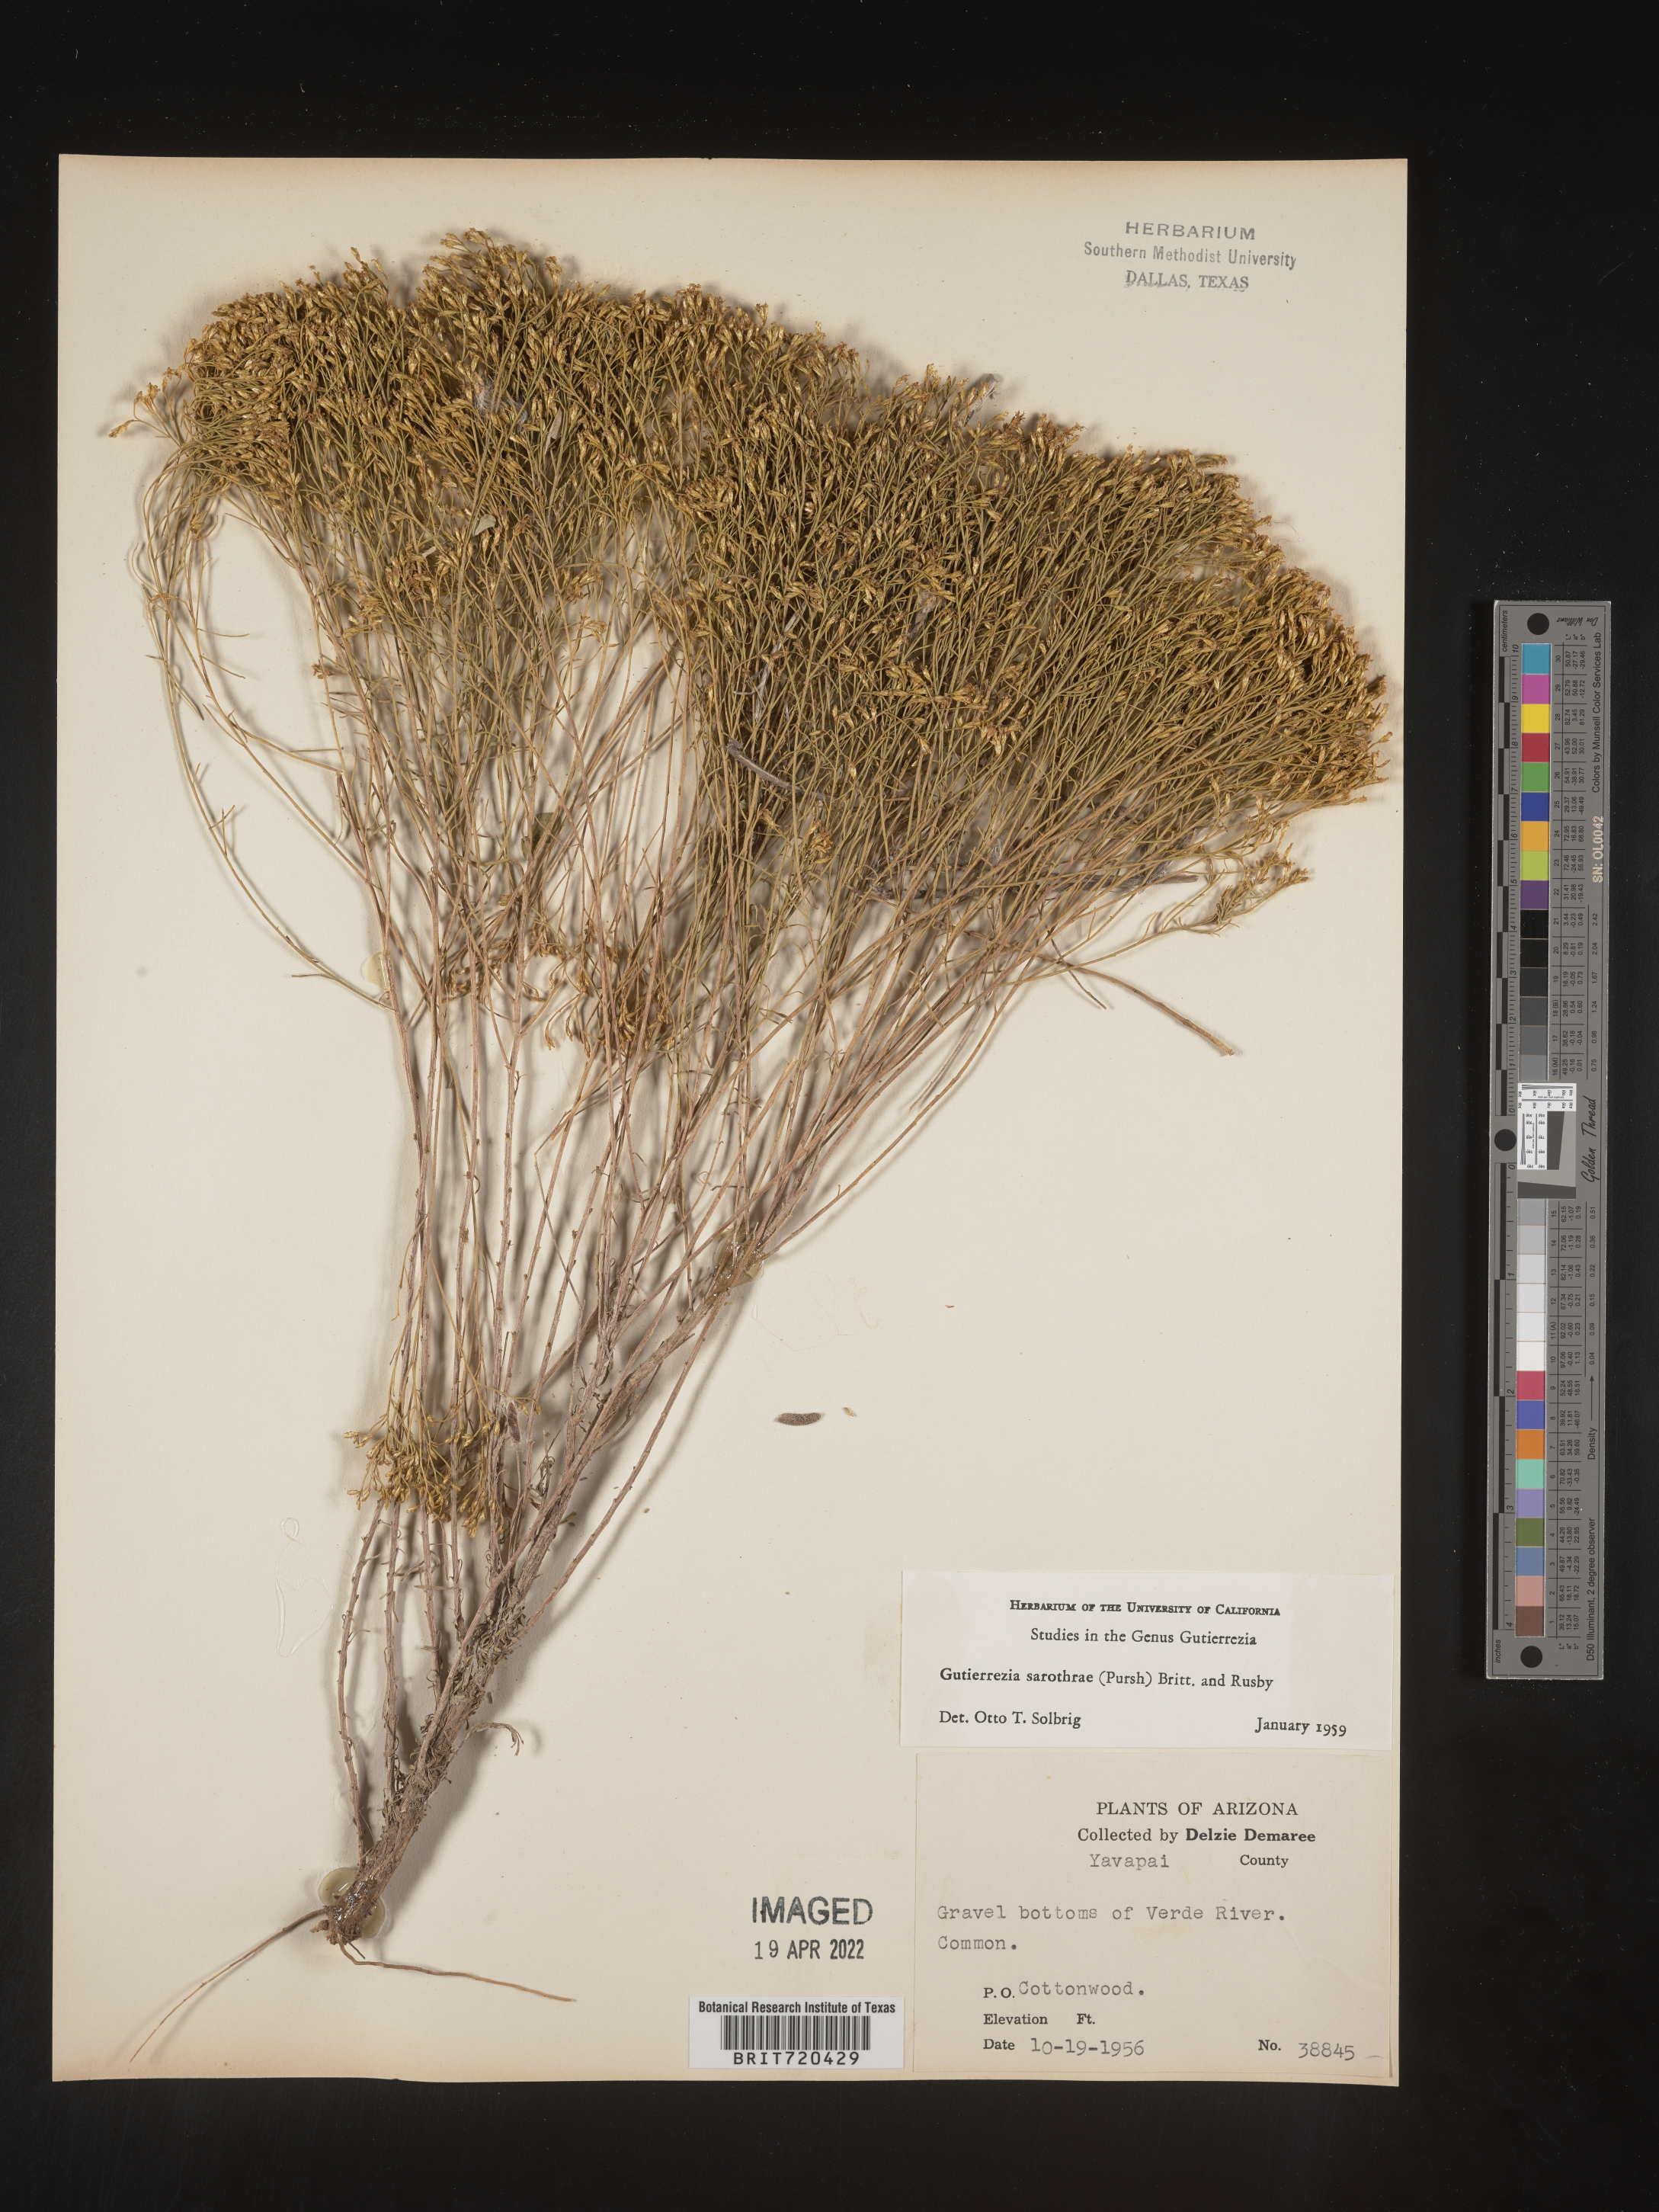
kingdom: Plantae
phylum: Tracheophyta
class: Magnoliopsida
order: Asterales
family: Asteraceae
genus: Gutierrezia
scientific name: Gutierrezia sarothrae
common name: Broom snakeweed
